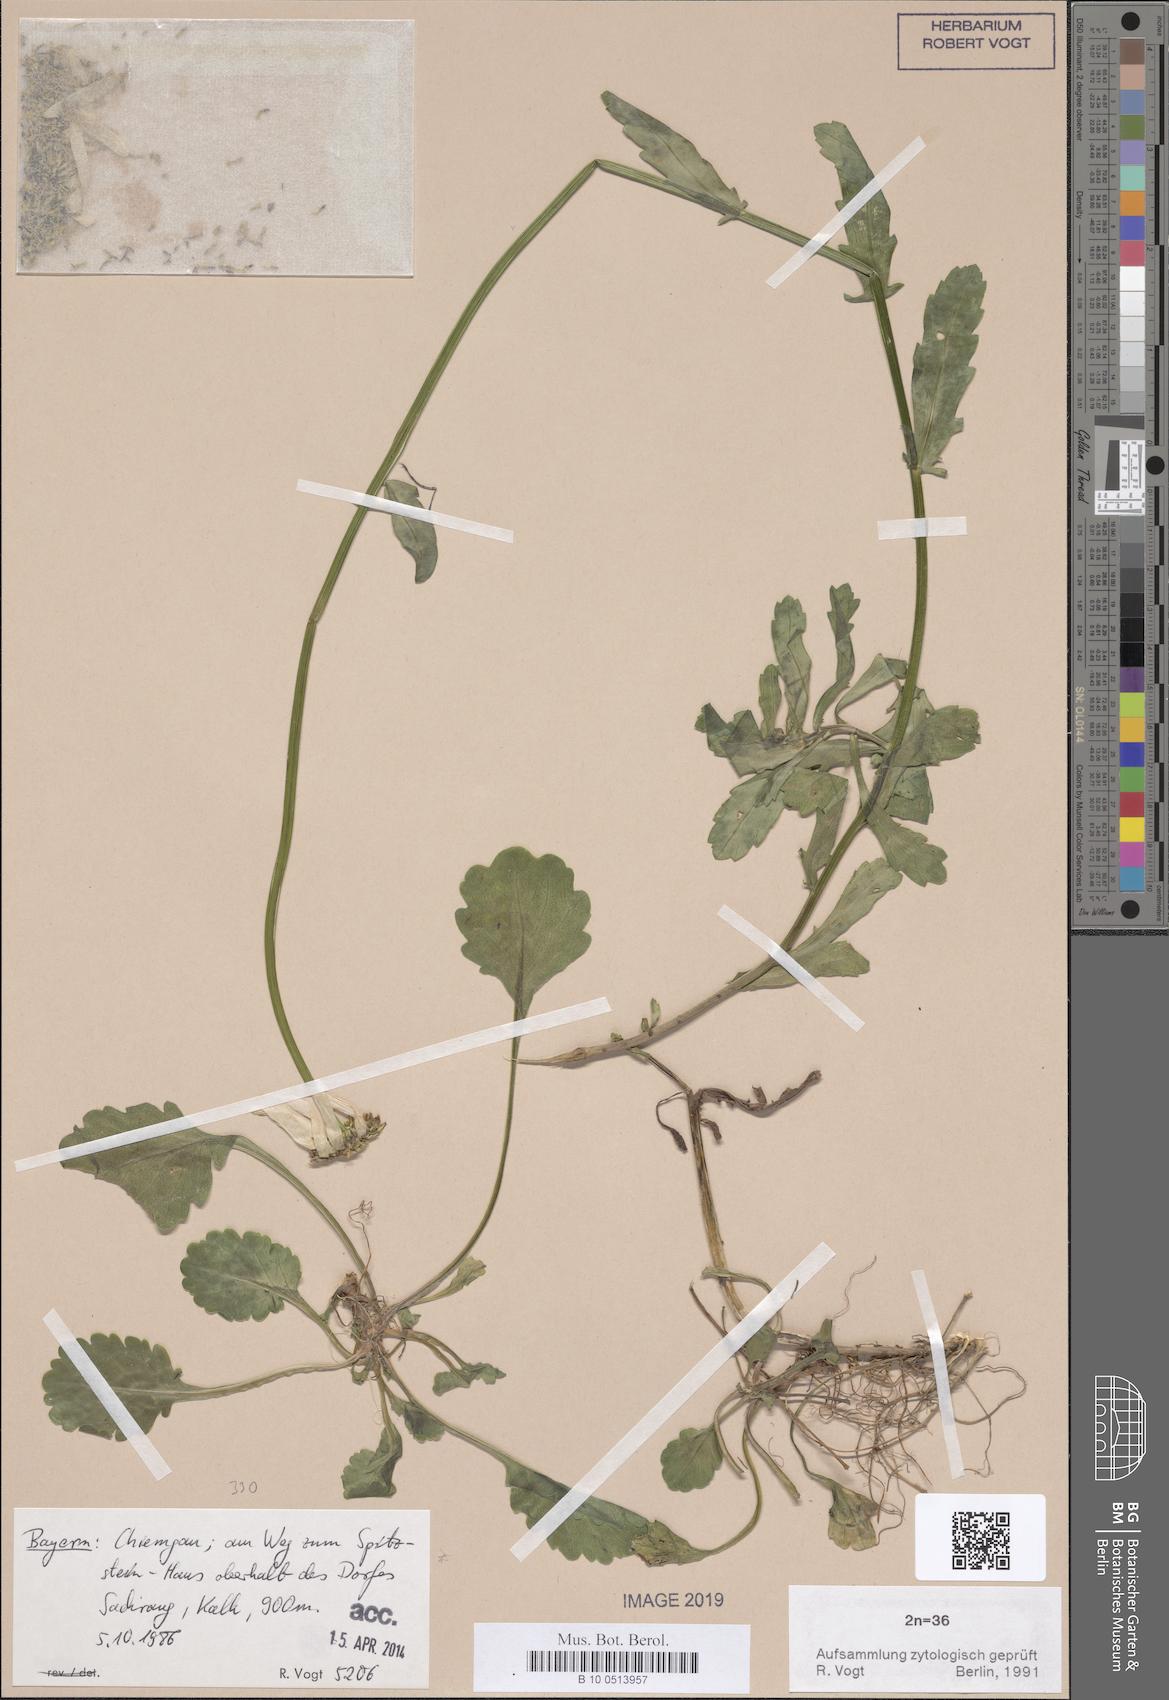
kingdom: Plantae
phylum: Tracheophyta
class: Magnoliopsida
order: Asterales
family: Asteraceae
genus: Leucanthemum
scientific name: Leucanthemum ircutianum
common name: Daisy
